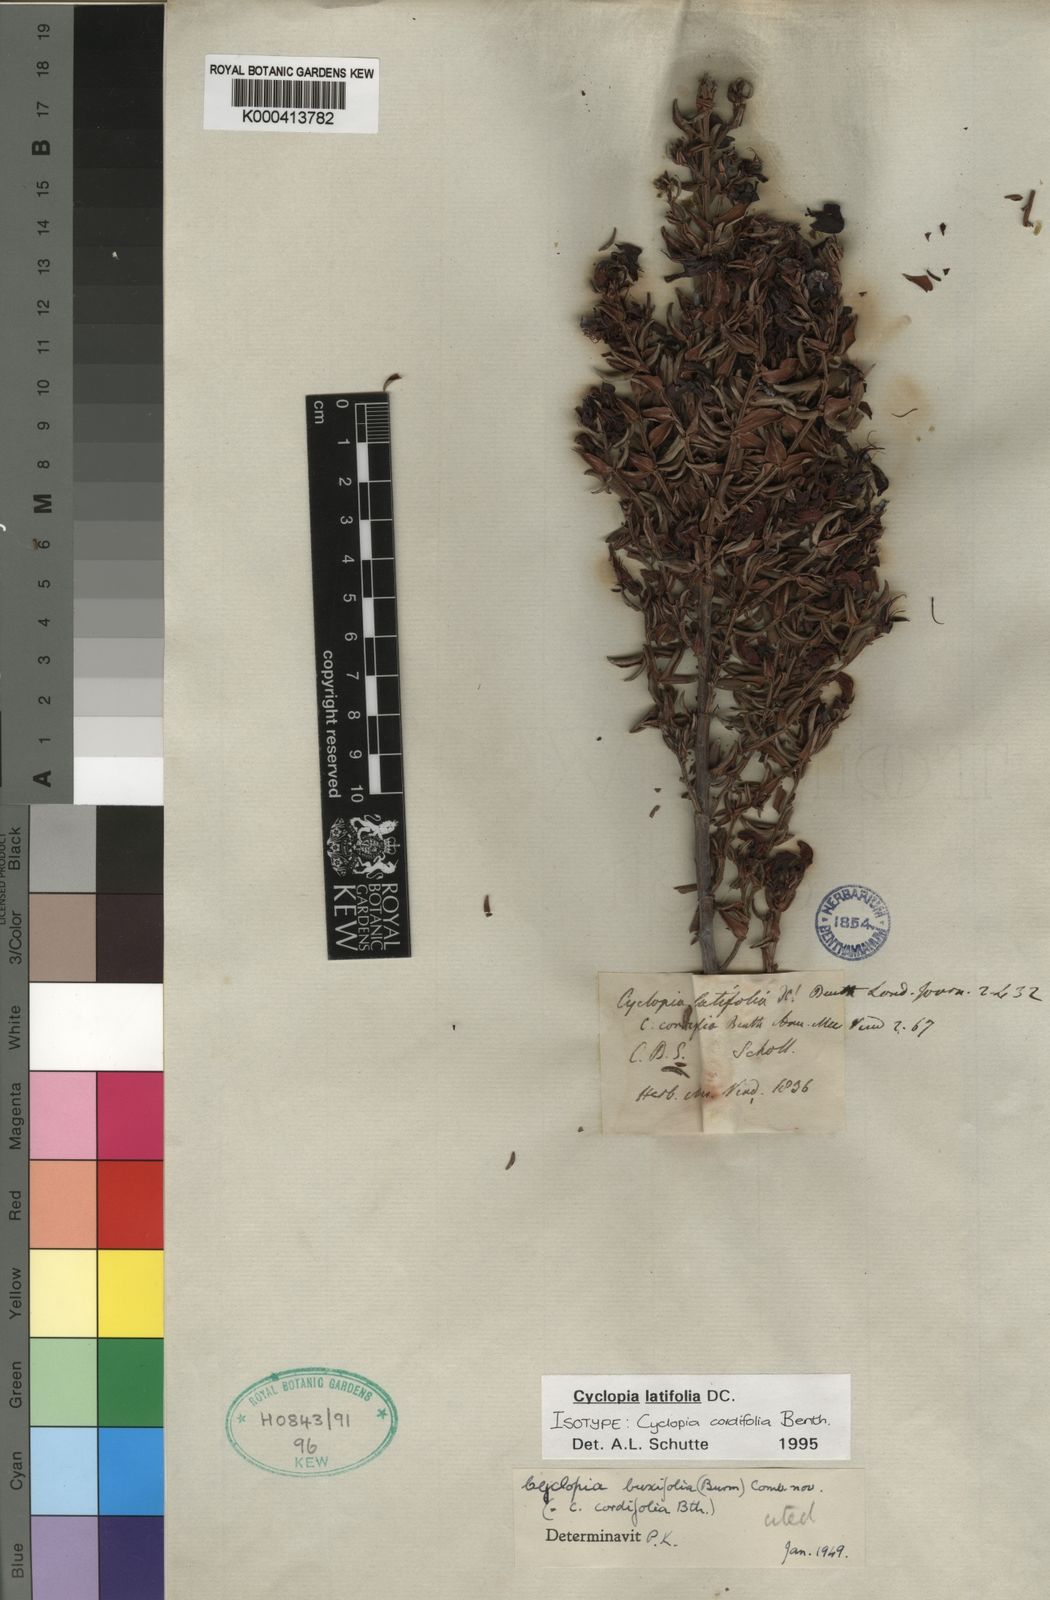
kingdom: Plantae
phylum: Tracheophyta
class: Magnoliopsida
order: Fabales
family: Fabaceae
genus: Cyclopia
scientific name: Cyclopia latifolia
